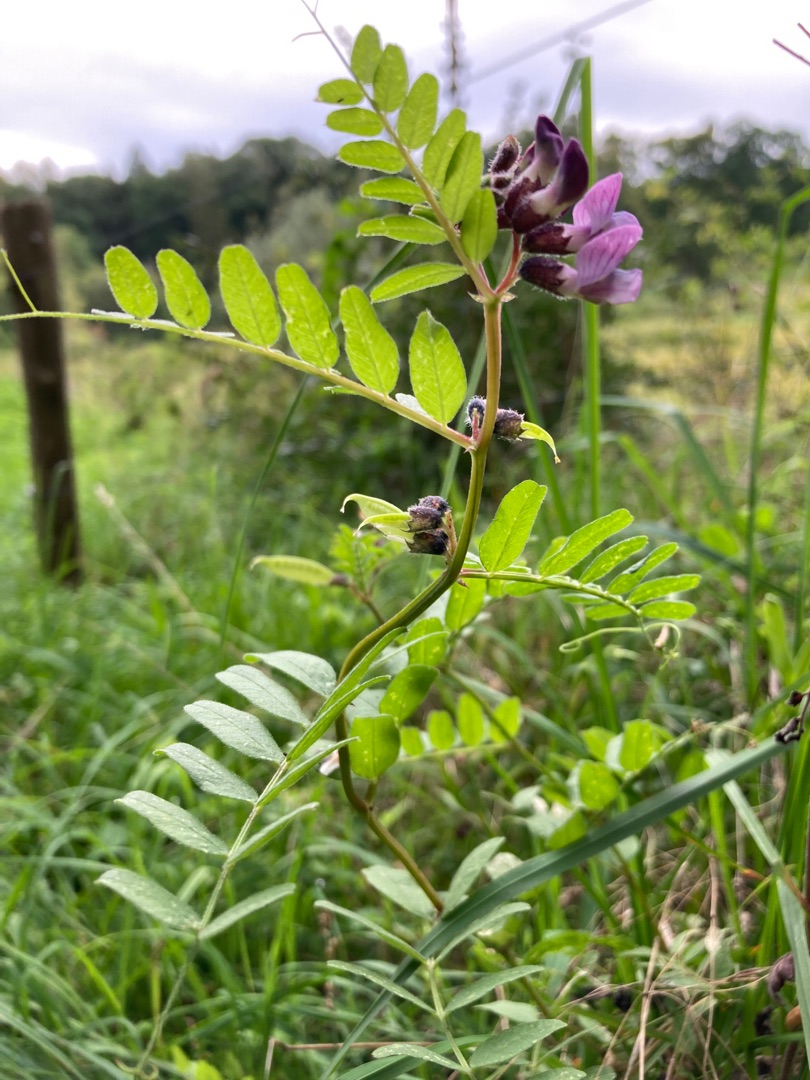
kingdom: Plantae
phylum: Tracheophyta
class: Magnoliopsida
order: Fabales
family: Fabaceae
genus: Vicia
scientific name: Vicia sepium
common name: Gærde-vikke
